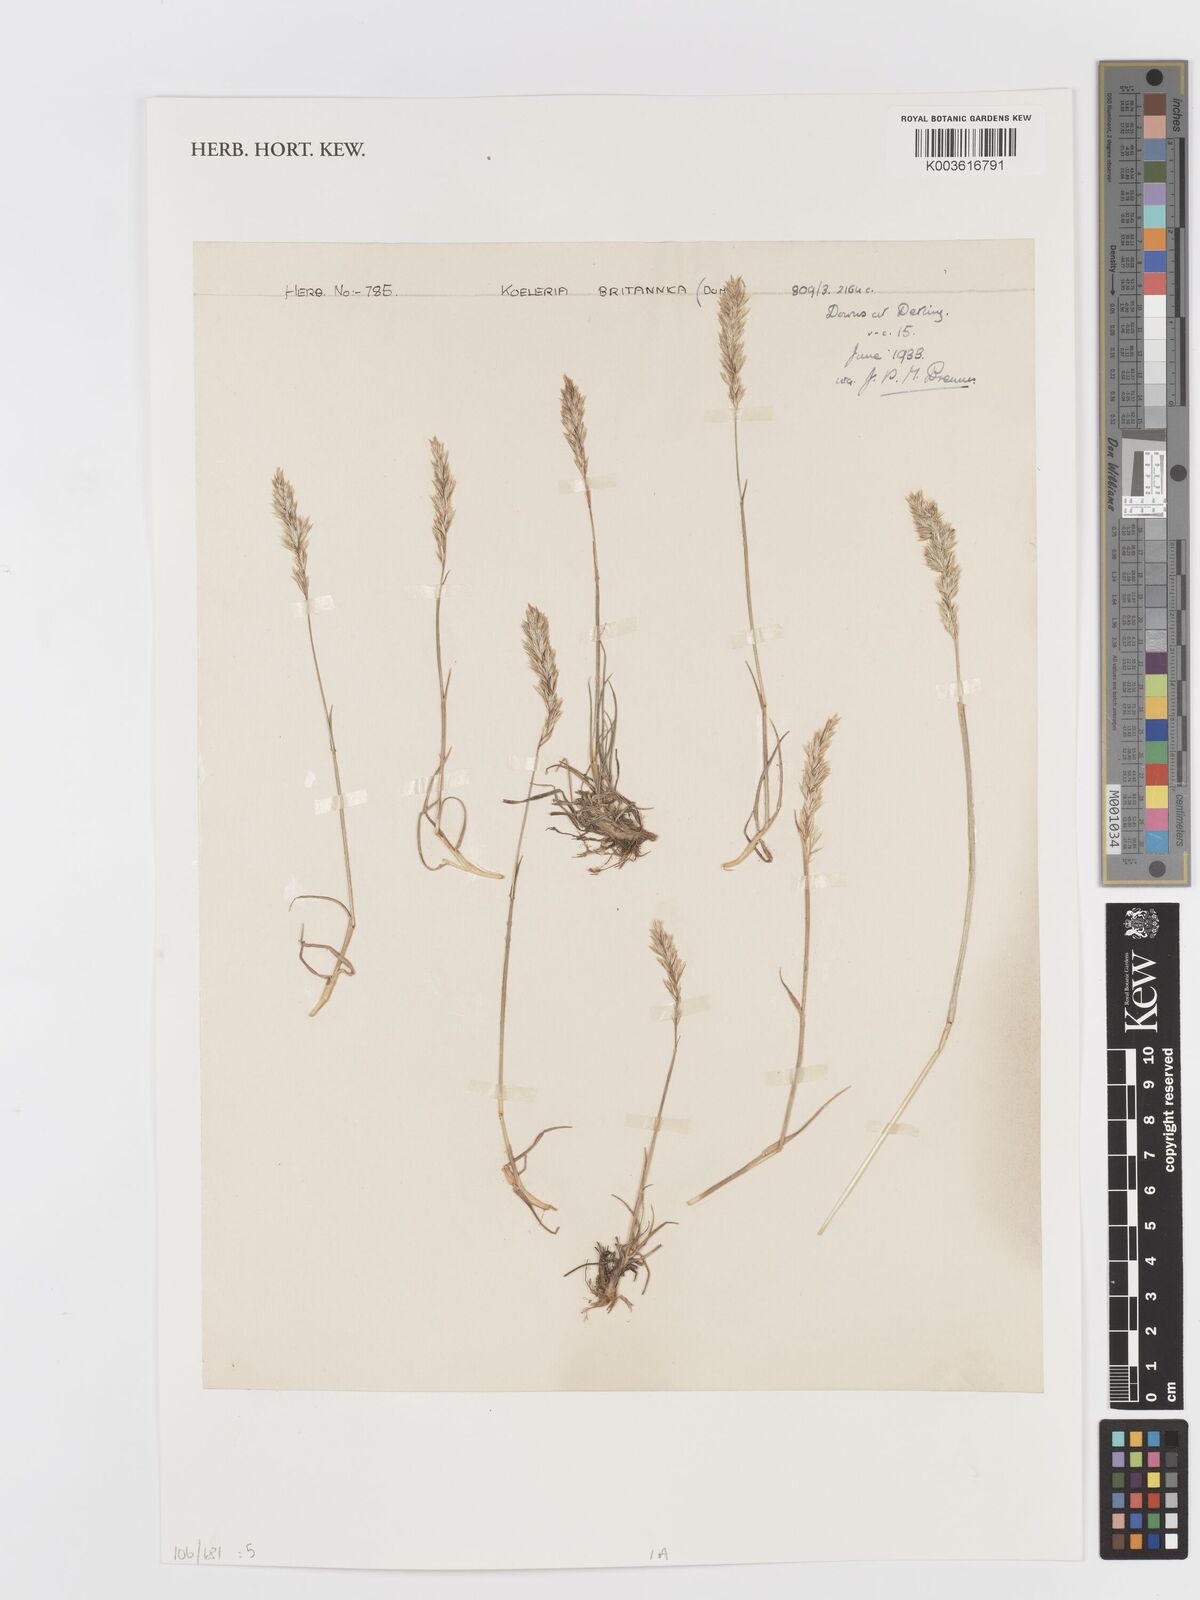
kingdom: Plantae
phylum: Tracheophyta
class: Liliopsida
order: Poales
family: Poaceae
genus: Koeleria
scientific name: Koeleria macrantha
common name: Crested hair-grass
